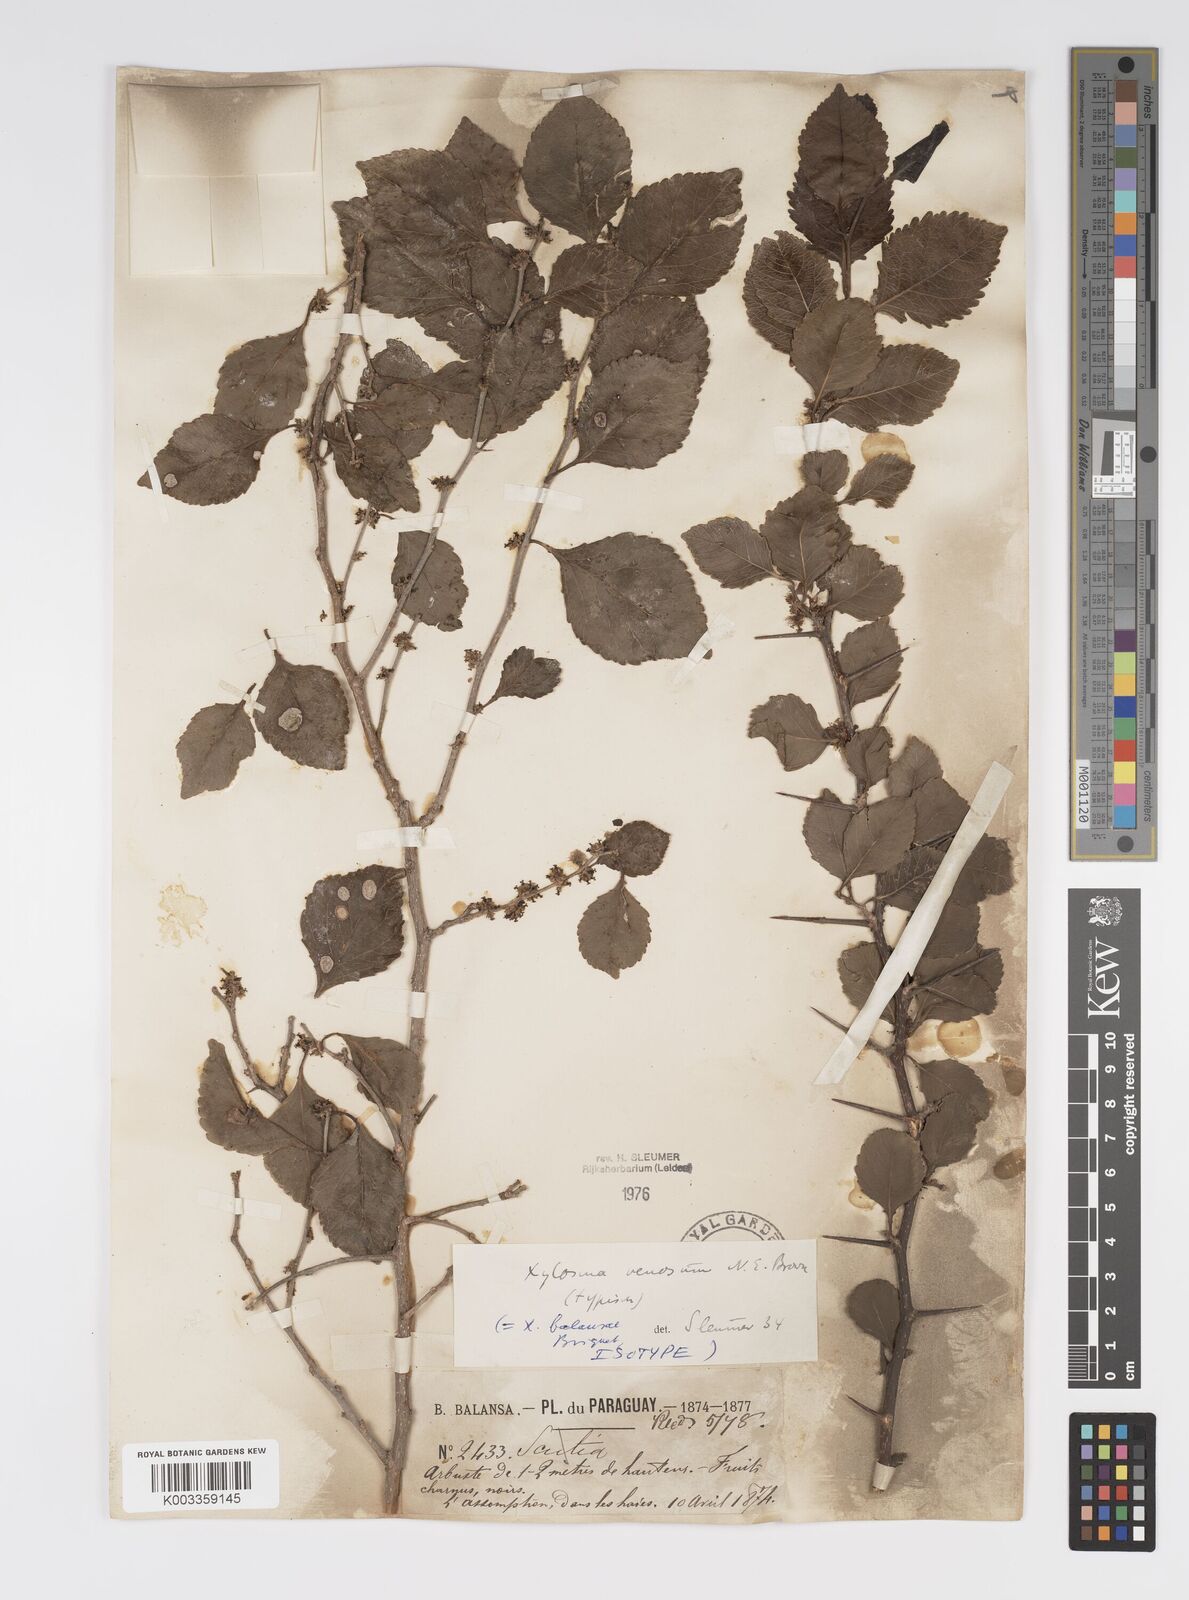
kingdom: Plantae
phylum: Tracheophyta
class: Magnoliopsida
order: Malpighiales
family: Salicaceae
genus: Xylosma
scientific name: Xylosma venosa
